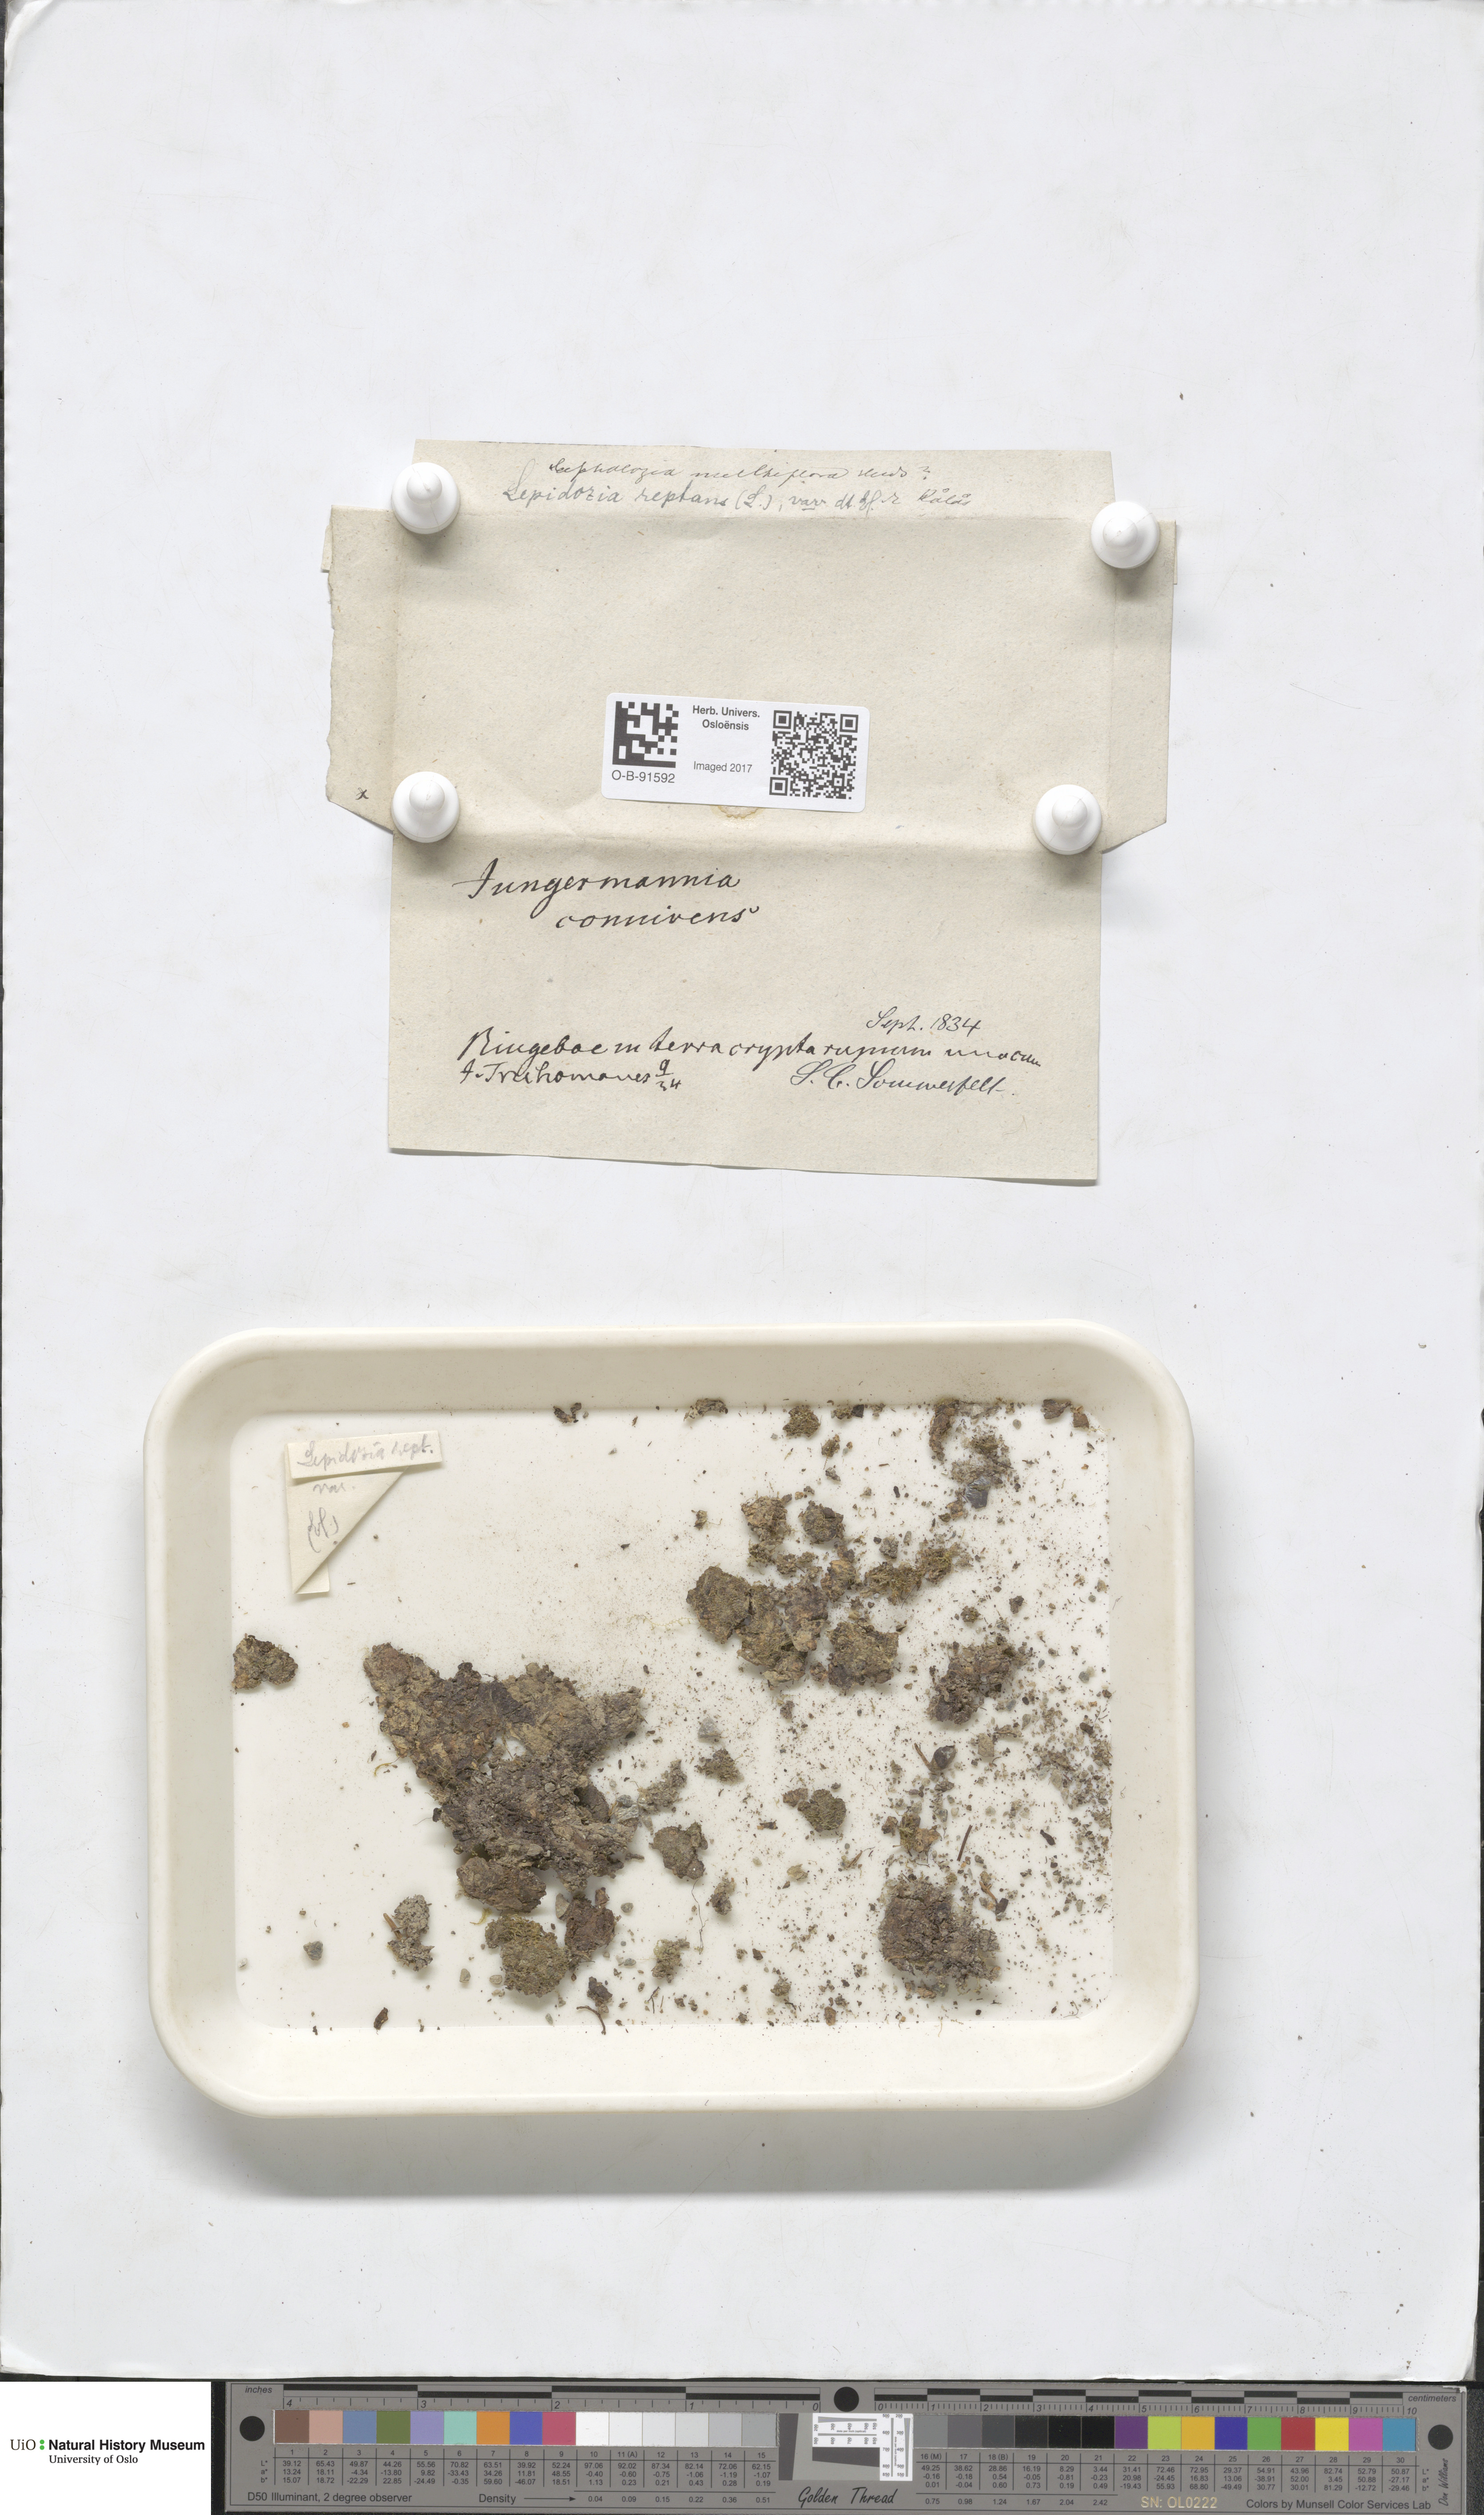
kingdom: Plantae
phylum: Marchantiophyta
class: Jungermanniopsida
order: Jungermanniales
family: Lepidoziaceae
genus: Lepidozia
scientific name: Lepidozia reptans
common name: Creeping fingerwort
